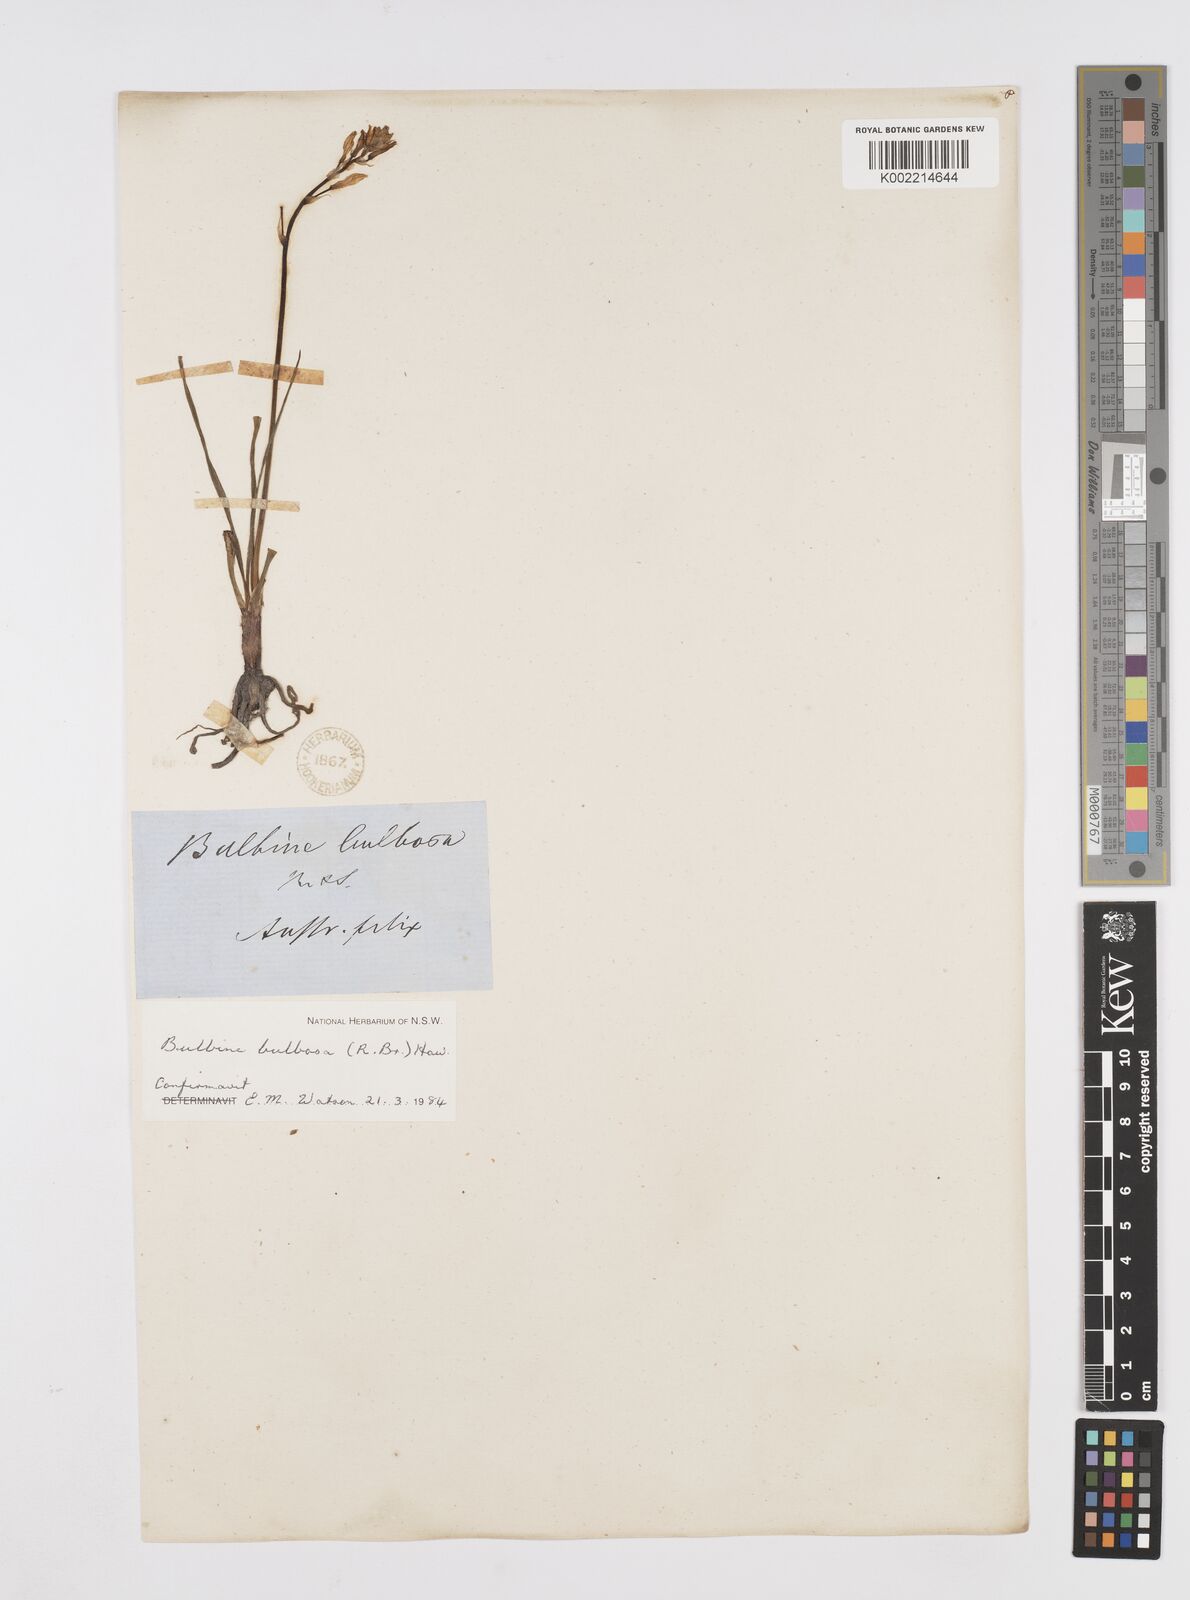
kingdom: Plantae
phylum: Tracheophyta
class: Liliopsida
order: Asparagales
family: Asphodelaceae
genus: Bulbine
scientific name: Bulbine bulbosa
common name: Golden-lily
